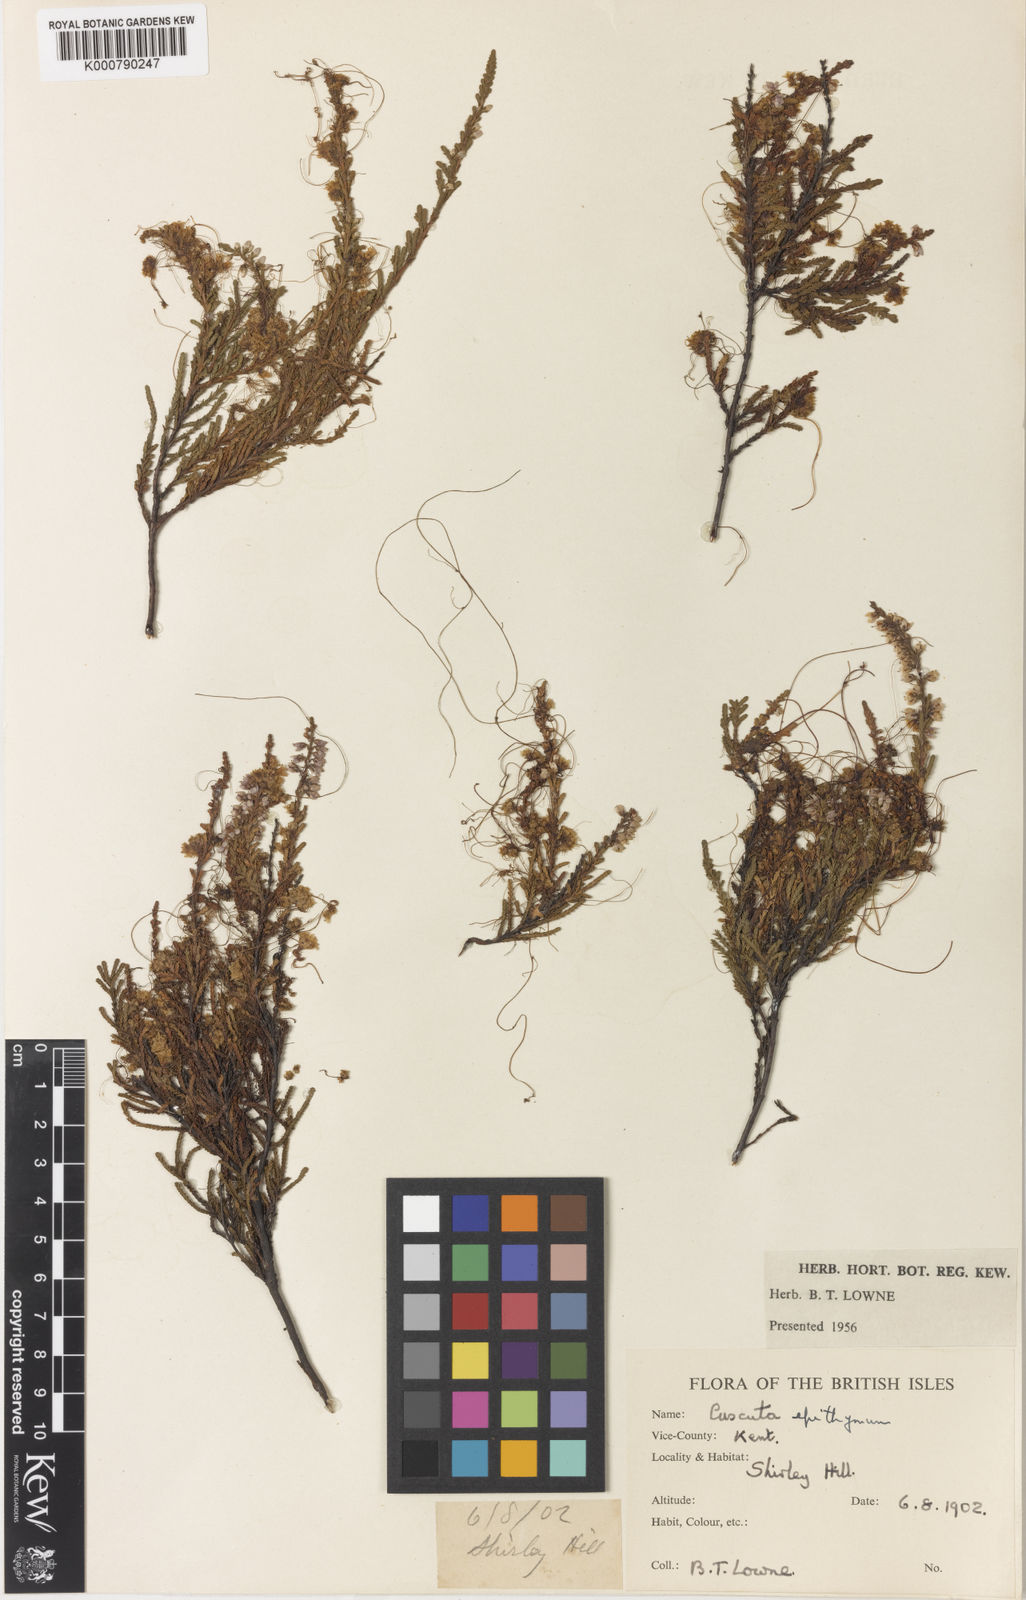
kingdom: Plantae
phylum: Tracheophyta
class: Magnoliopsida
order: Solanales
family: Convolvulaceae
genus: Cuscuta
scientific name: Cuscuta epithymum
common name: Clover dodder
